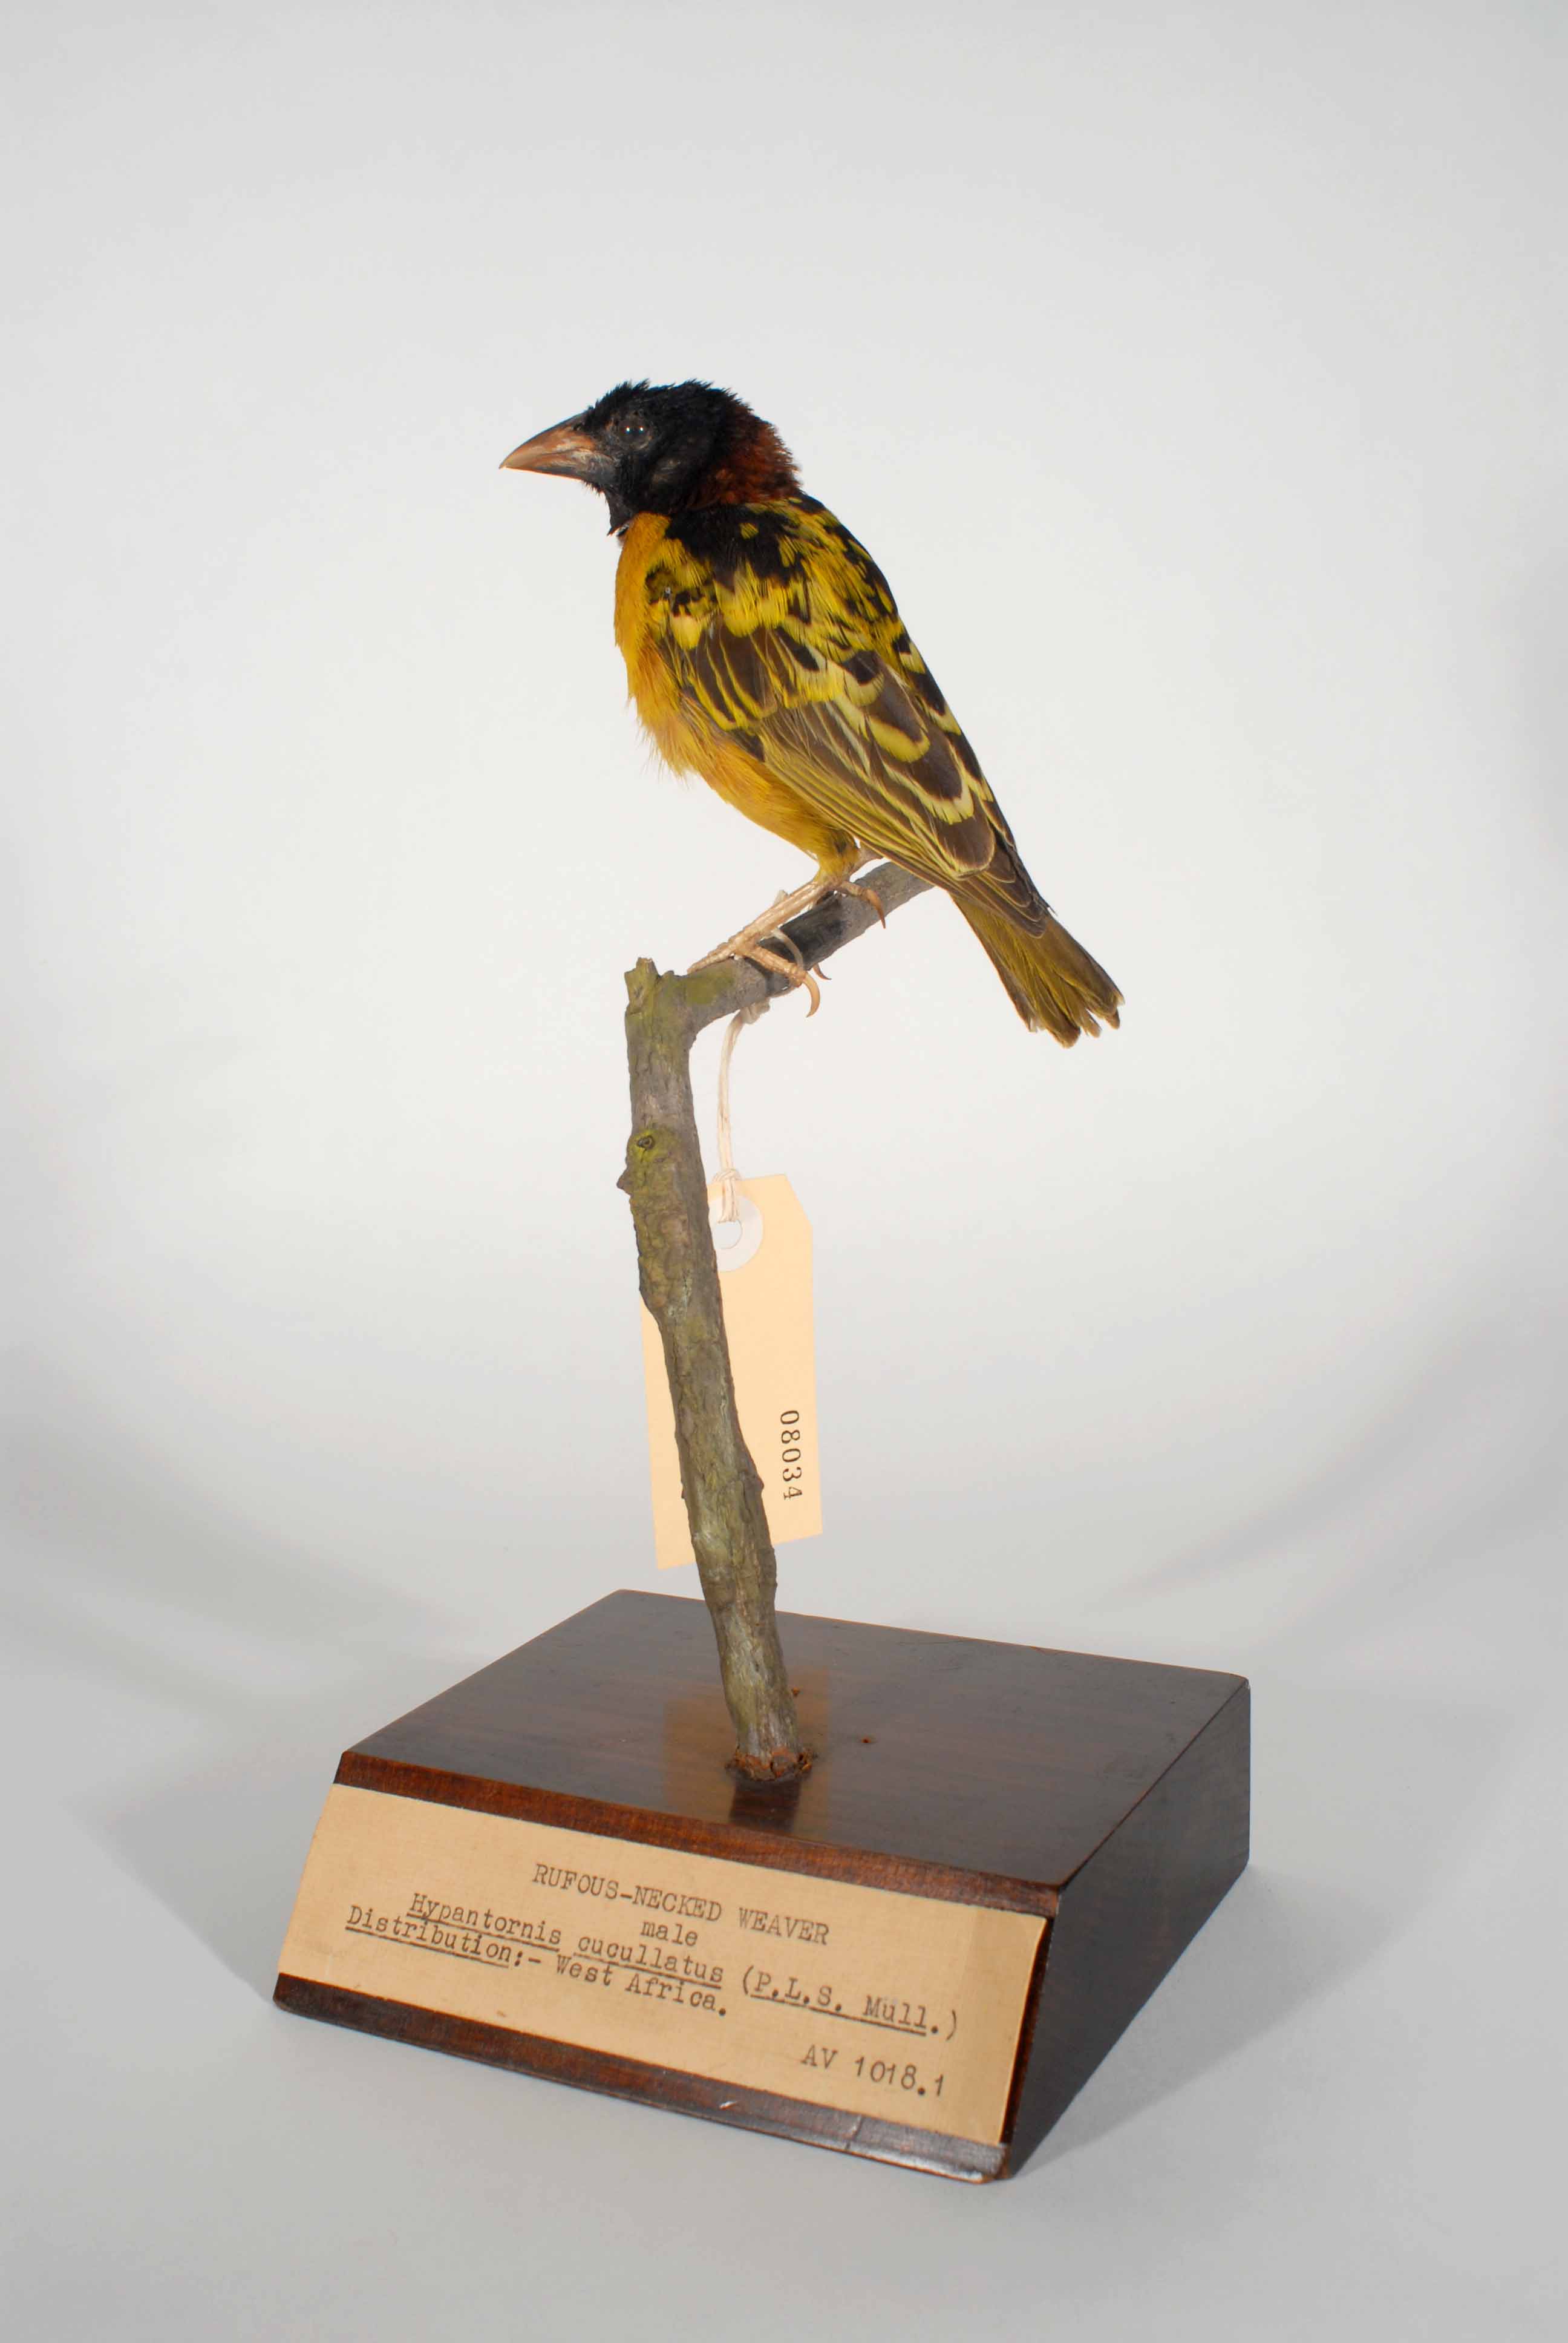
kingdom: Animalia
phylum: Chordata
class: Aves
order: Passeriformes
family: Ploceidae
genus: Ploceus
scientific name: Ploceus cucullatus
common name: Village weaver
